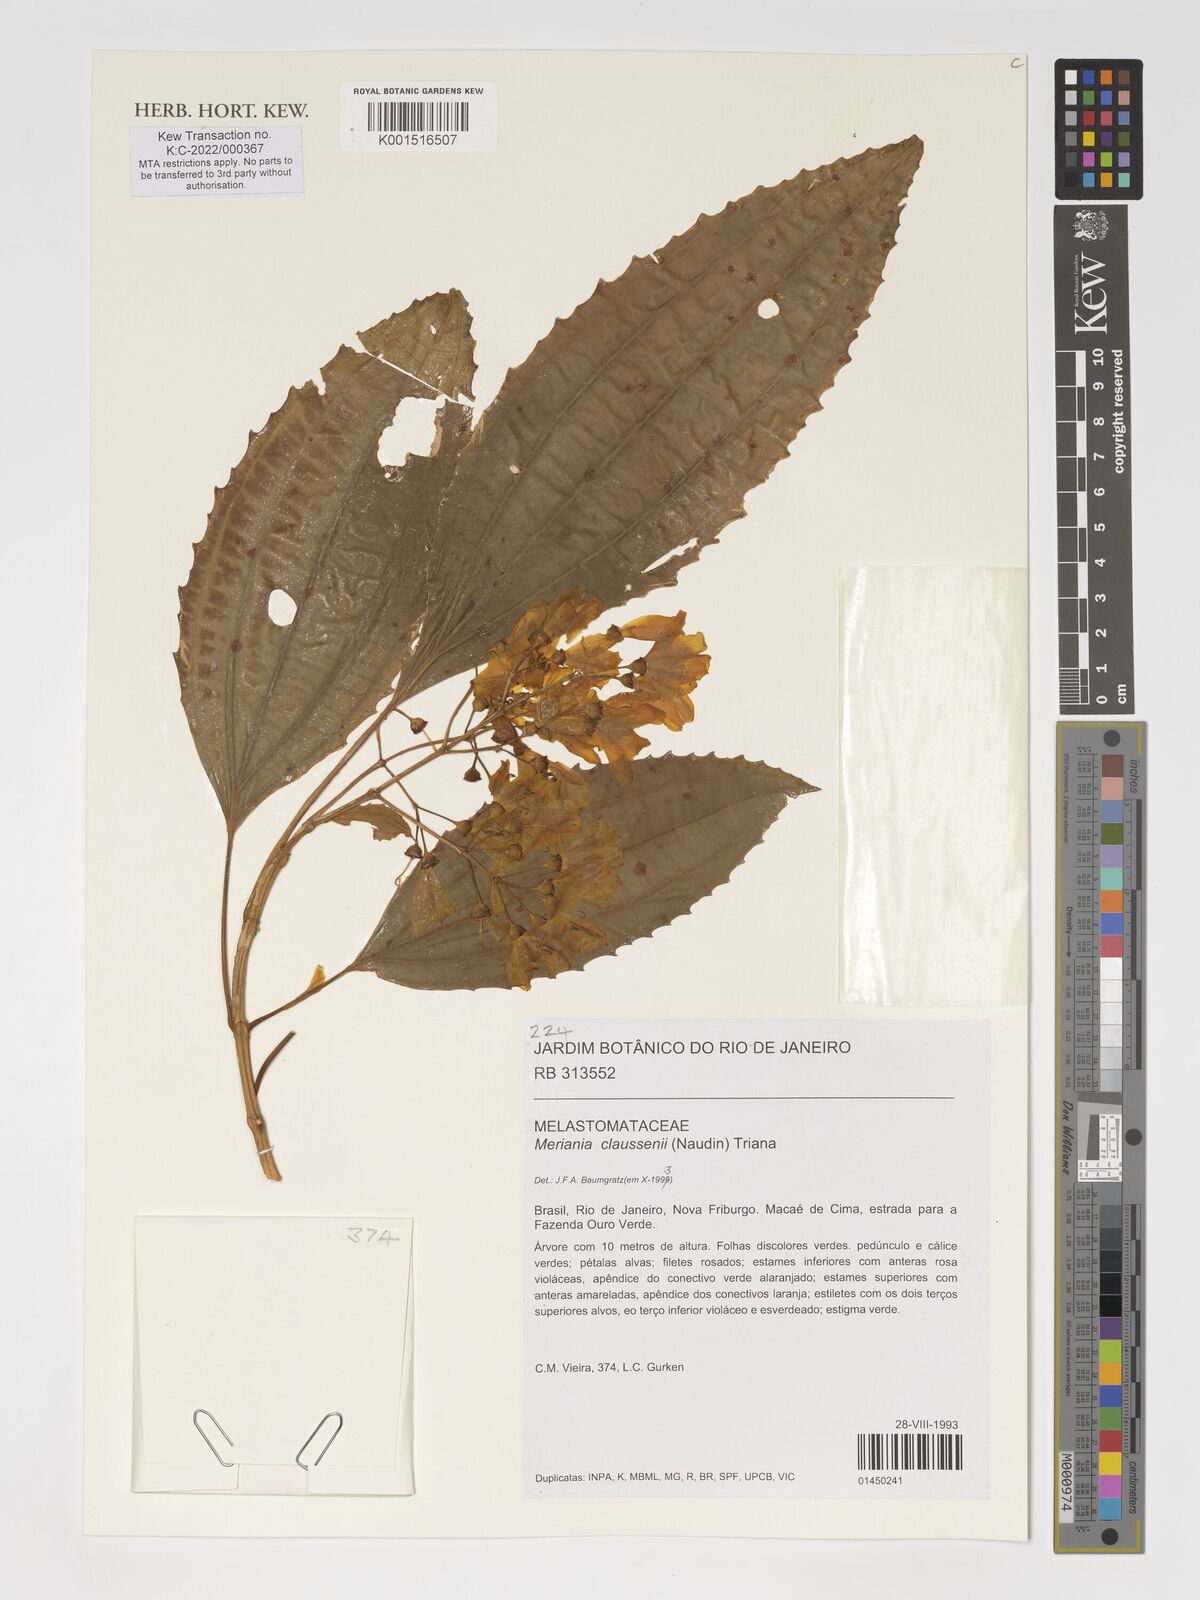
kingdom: Plantae
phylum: Tracheophyta
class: Magnoliopsida
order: Myrtales
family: Melastomataceae
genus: Meriania
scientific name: Meriania claussenii
